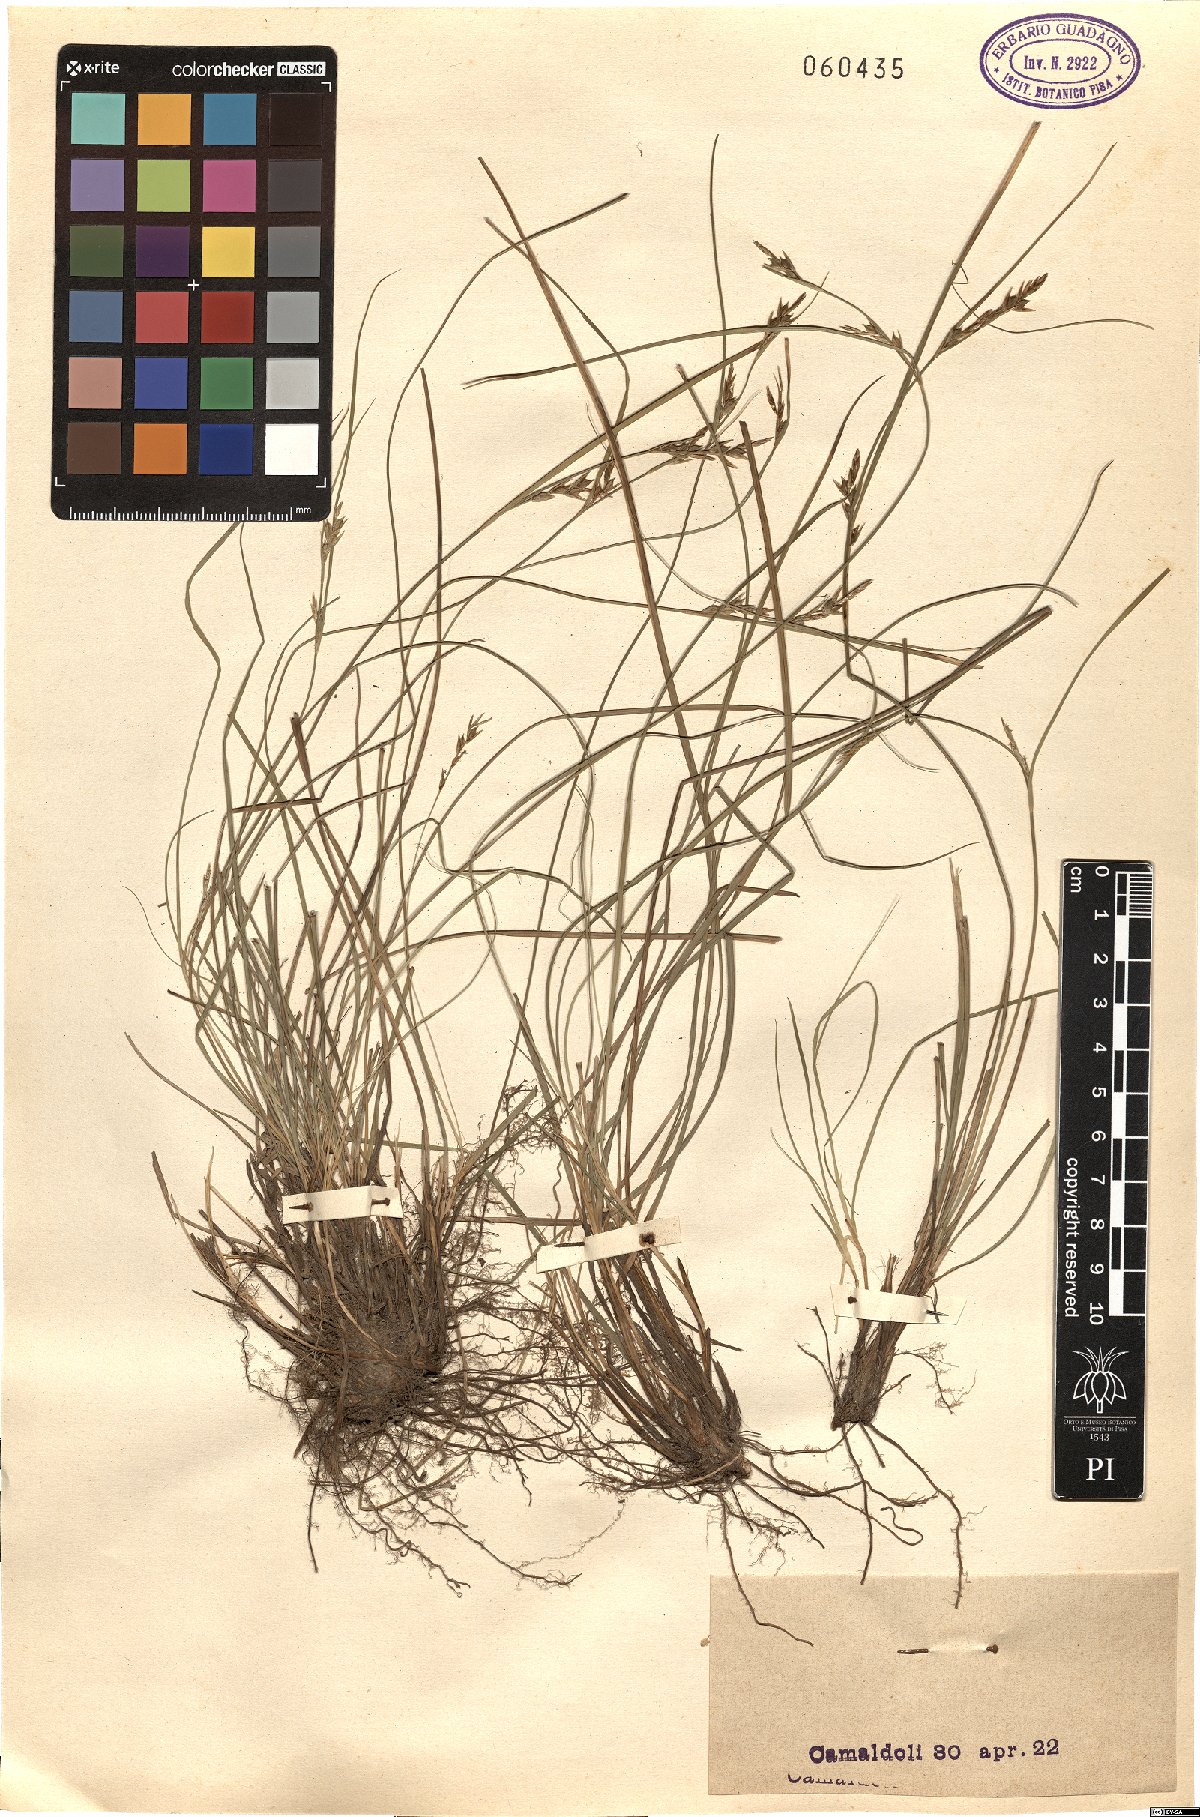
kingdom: Plantae
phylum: Tracheophyta
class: Liliopsida
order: Poales
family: Cyperaceae
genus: Carex
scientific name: Carex
